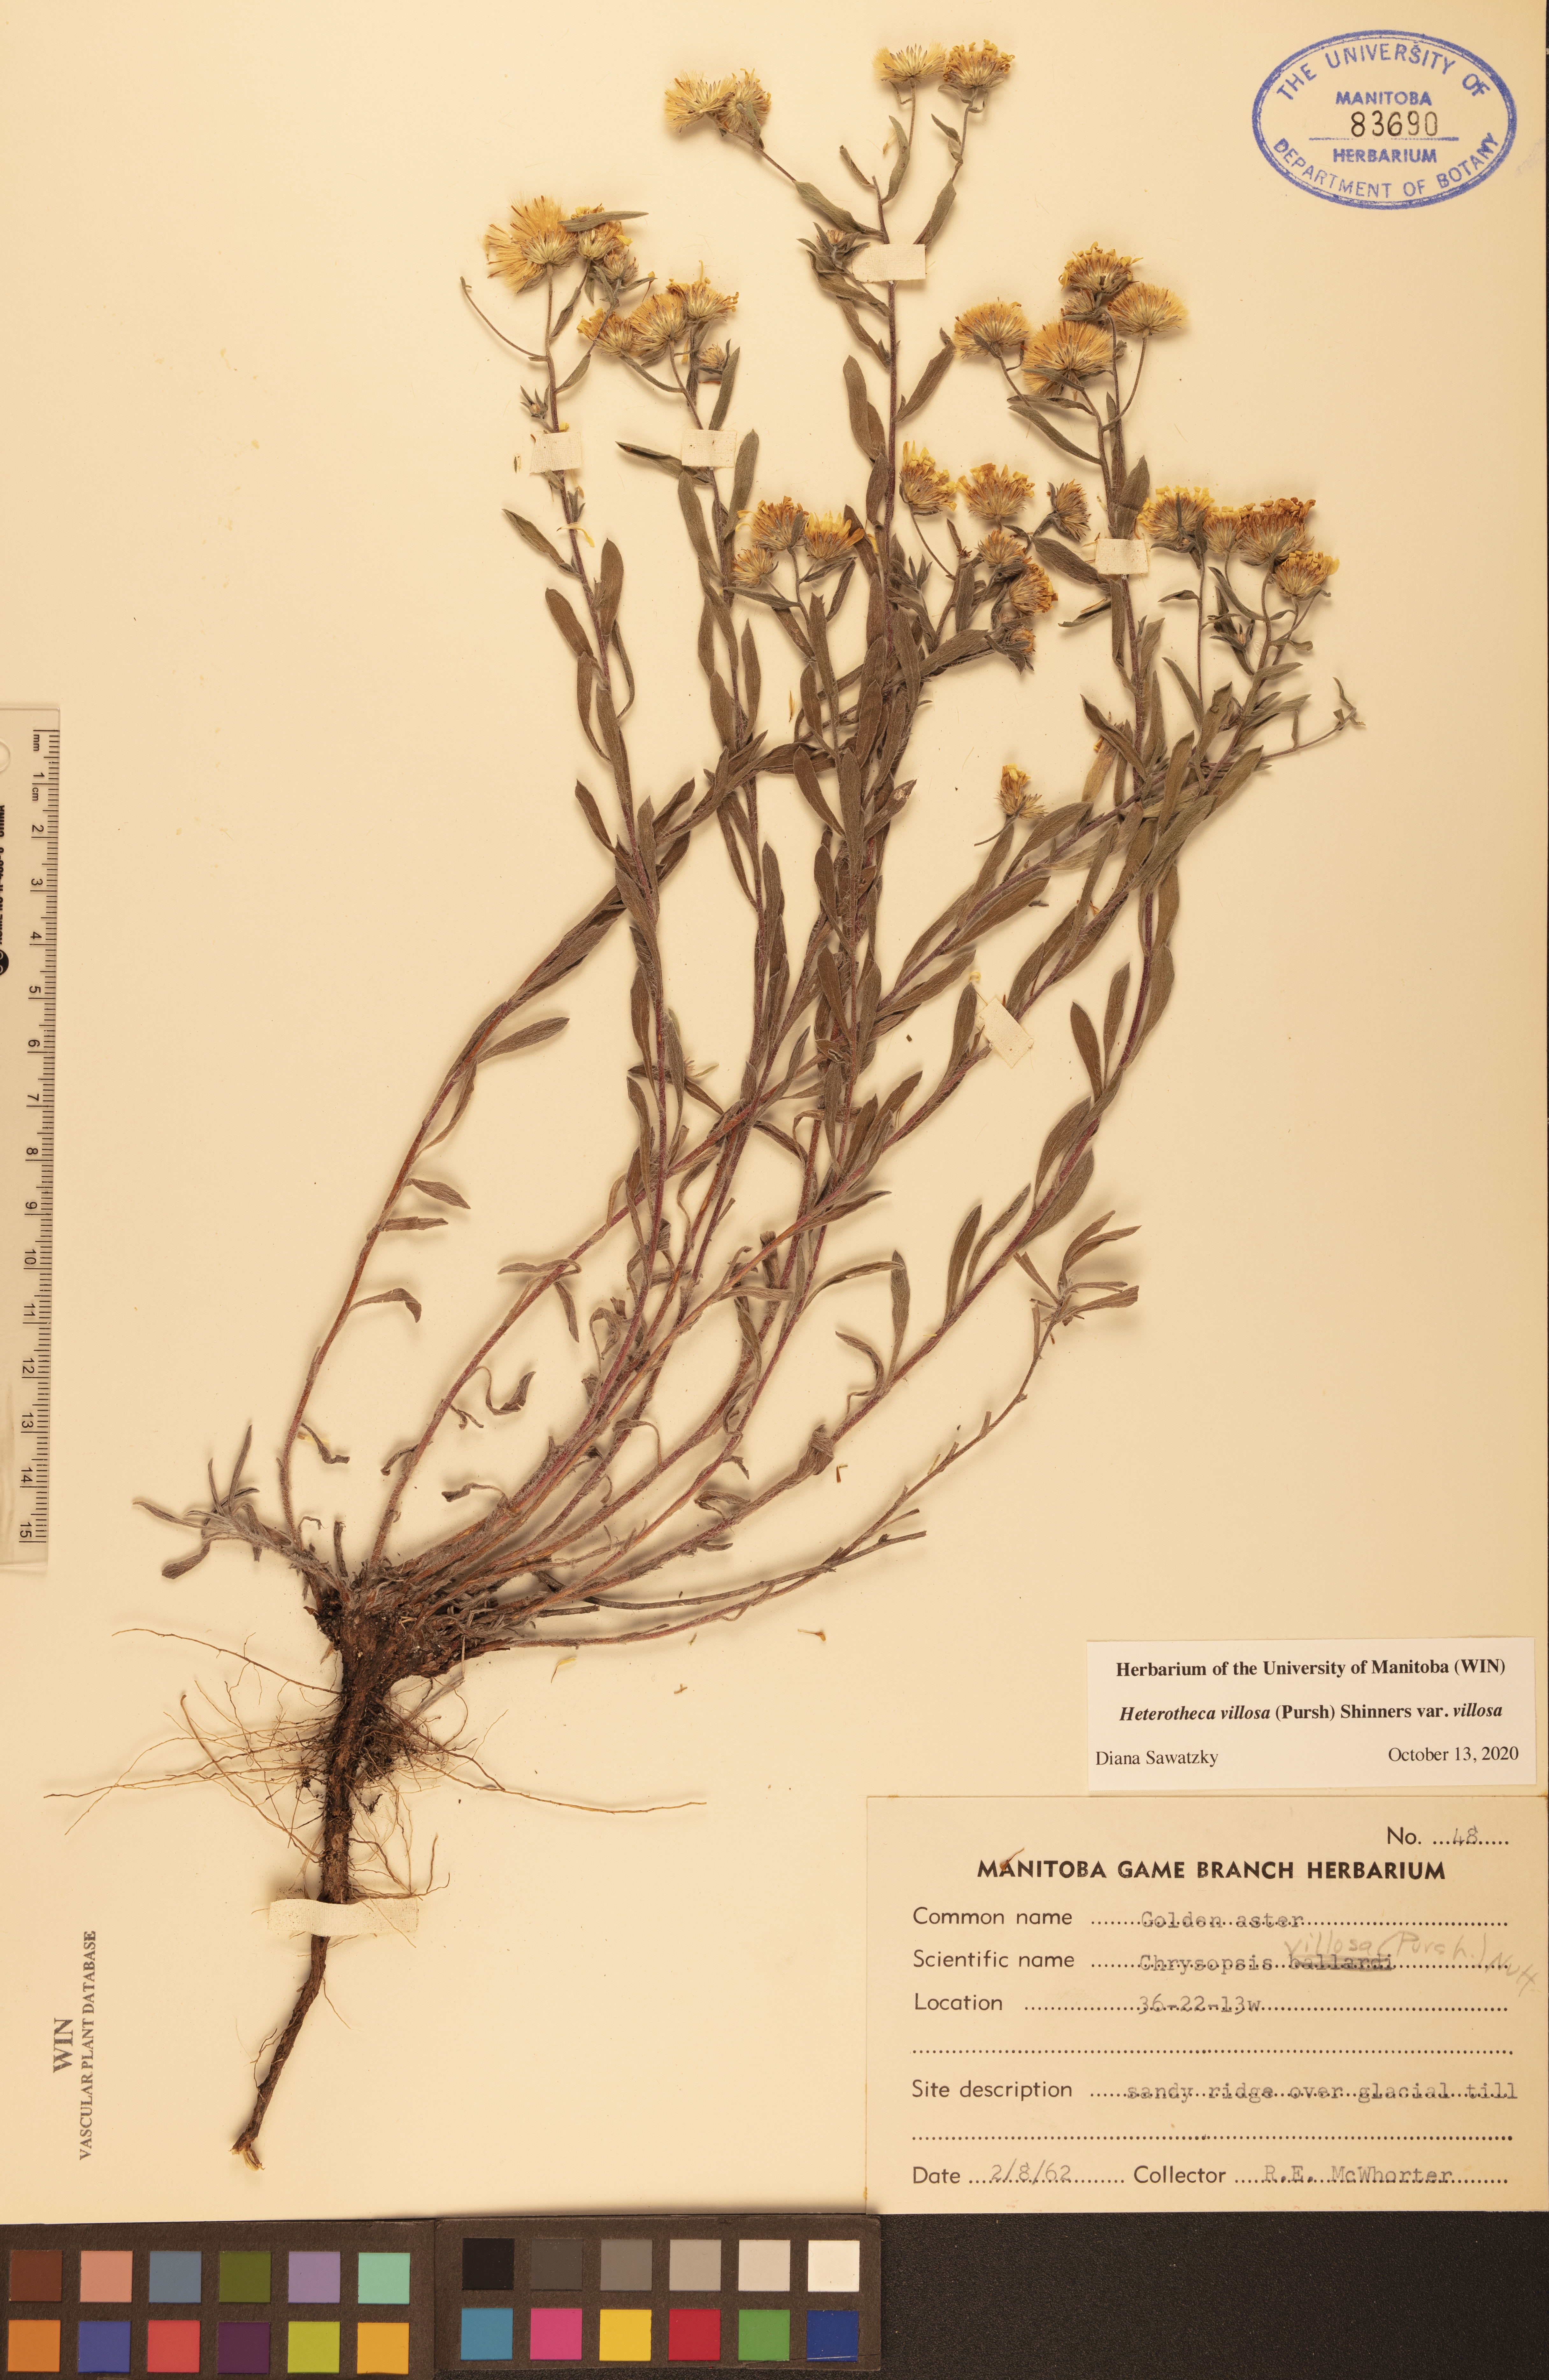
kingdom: Plantae
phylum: Tracheophyta
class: Magnoliopsida
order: Asterales
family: Asteraceae
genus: Heterotheca
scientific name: Heterotheca villosa
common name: Hairy false goldenaster
